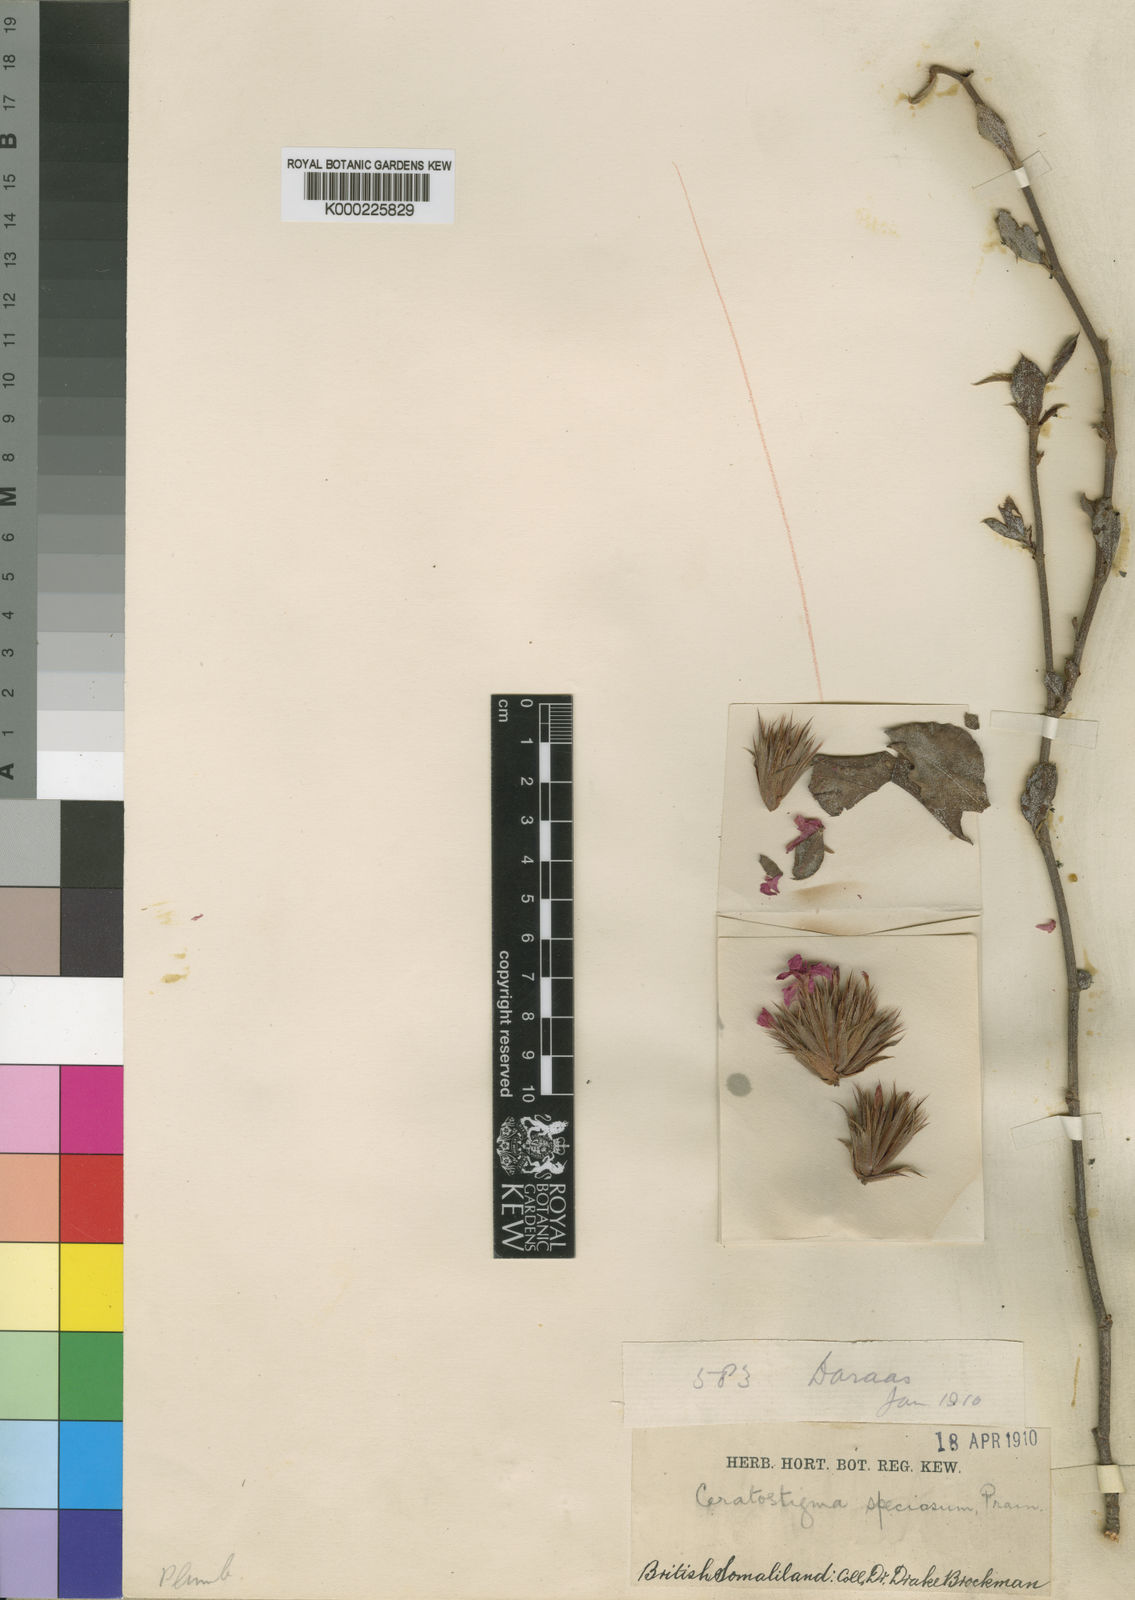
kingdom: Plantae
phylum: Tracheophyta
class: Magnoliopsida
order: Caryophyllales
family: Plumbaginaceae
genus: Ceratostigma
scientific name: Ceratostigma abyssinicum
